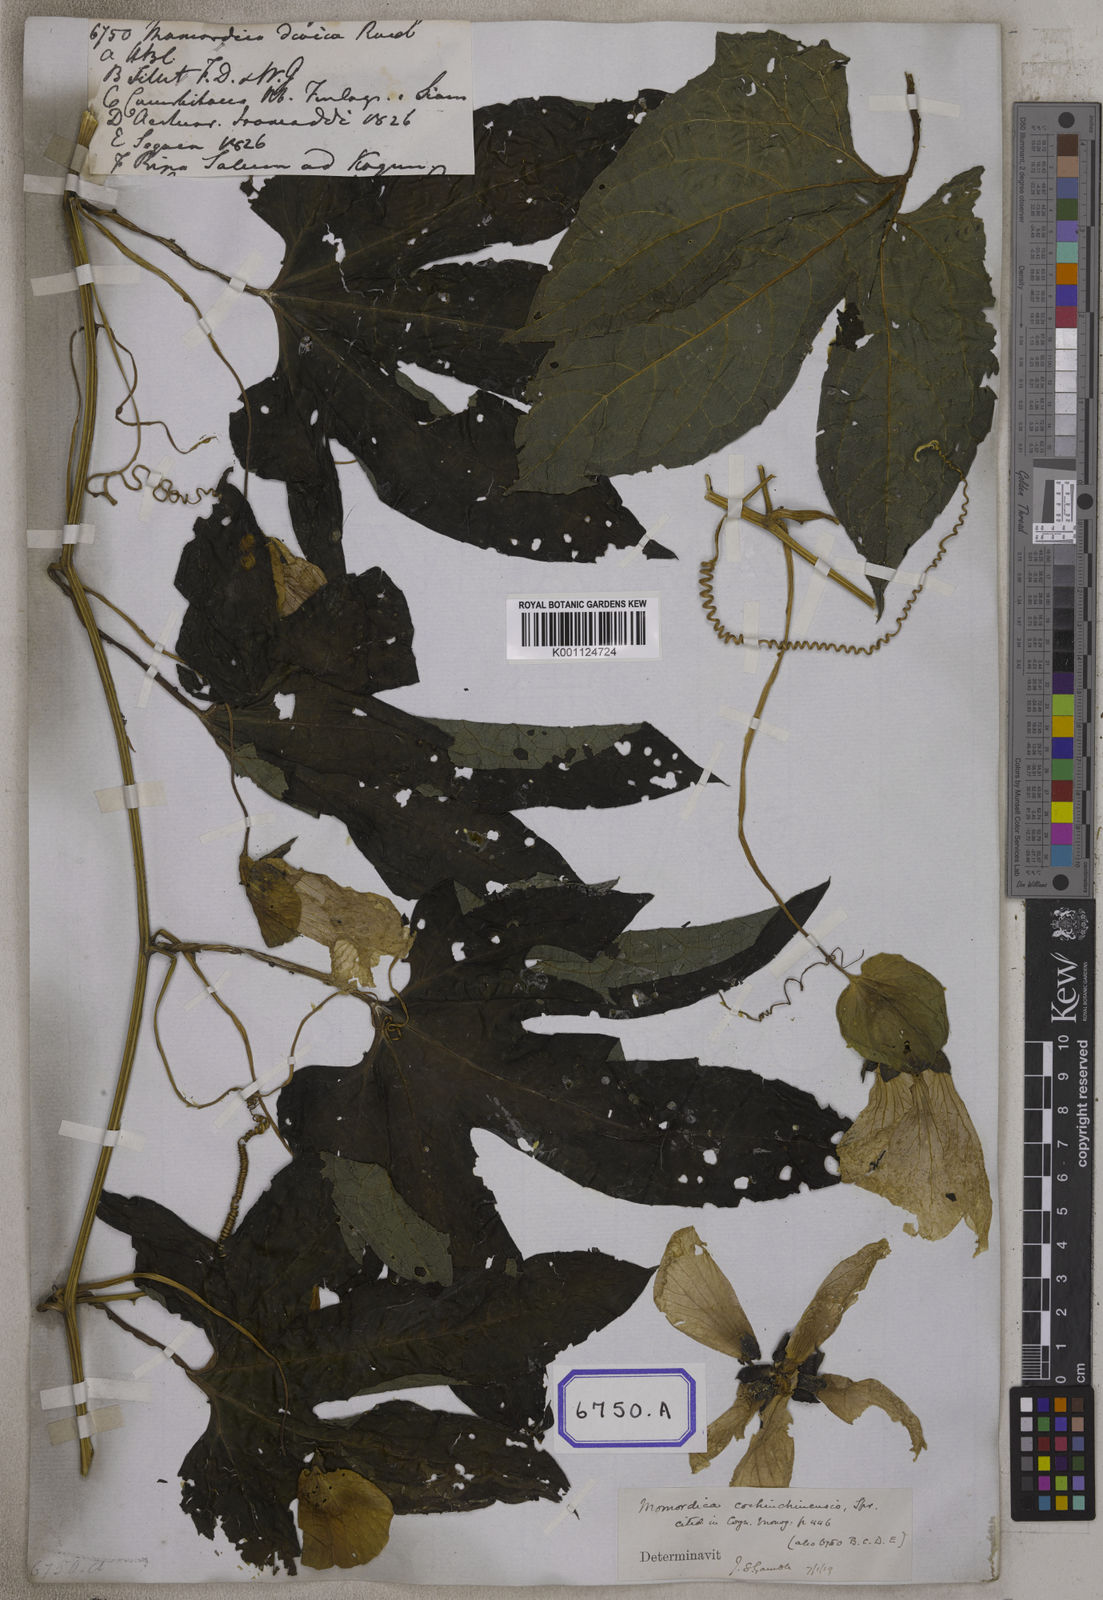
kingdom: Plantae
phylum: Tracheophyta
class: Magnoliopsida
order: Cucurbitales
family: Cucurbitaceae
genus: Momordica
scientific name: Momordica
